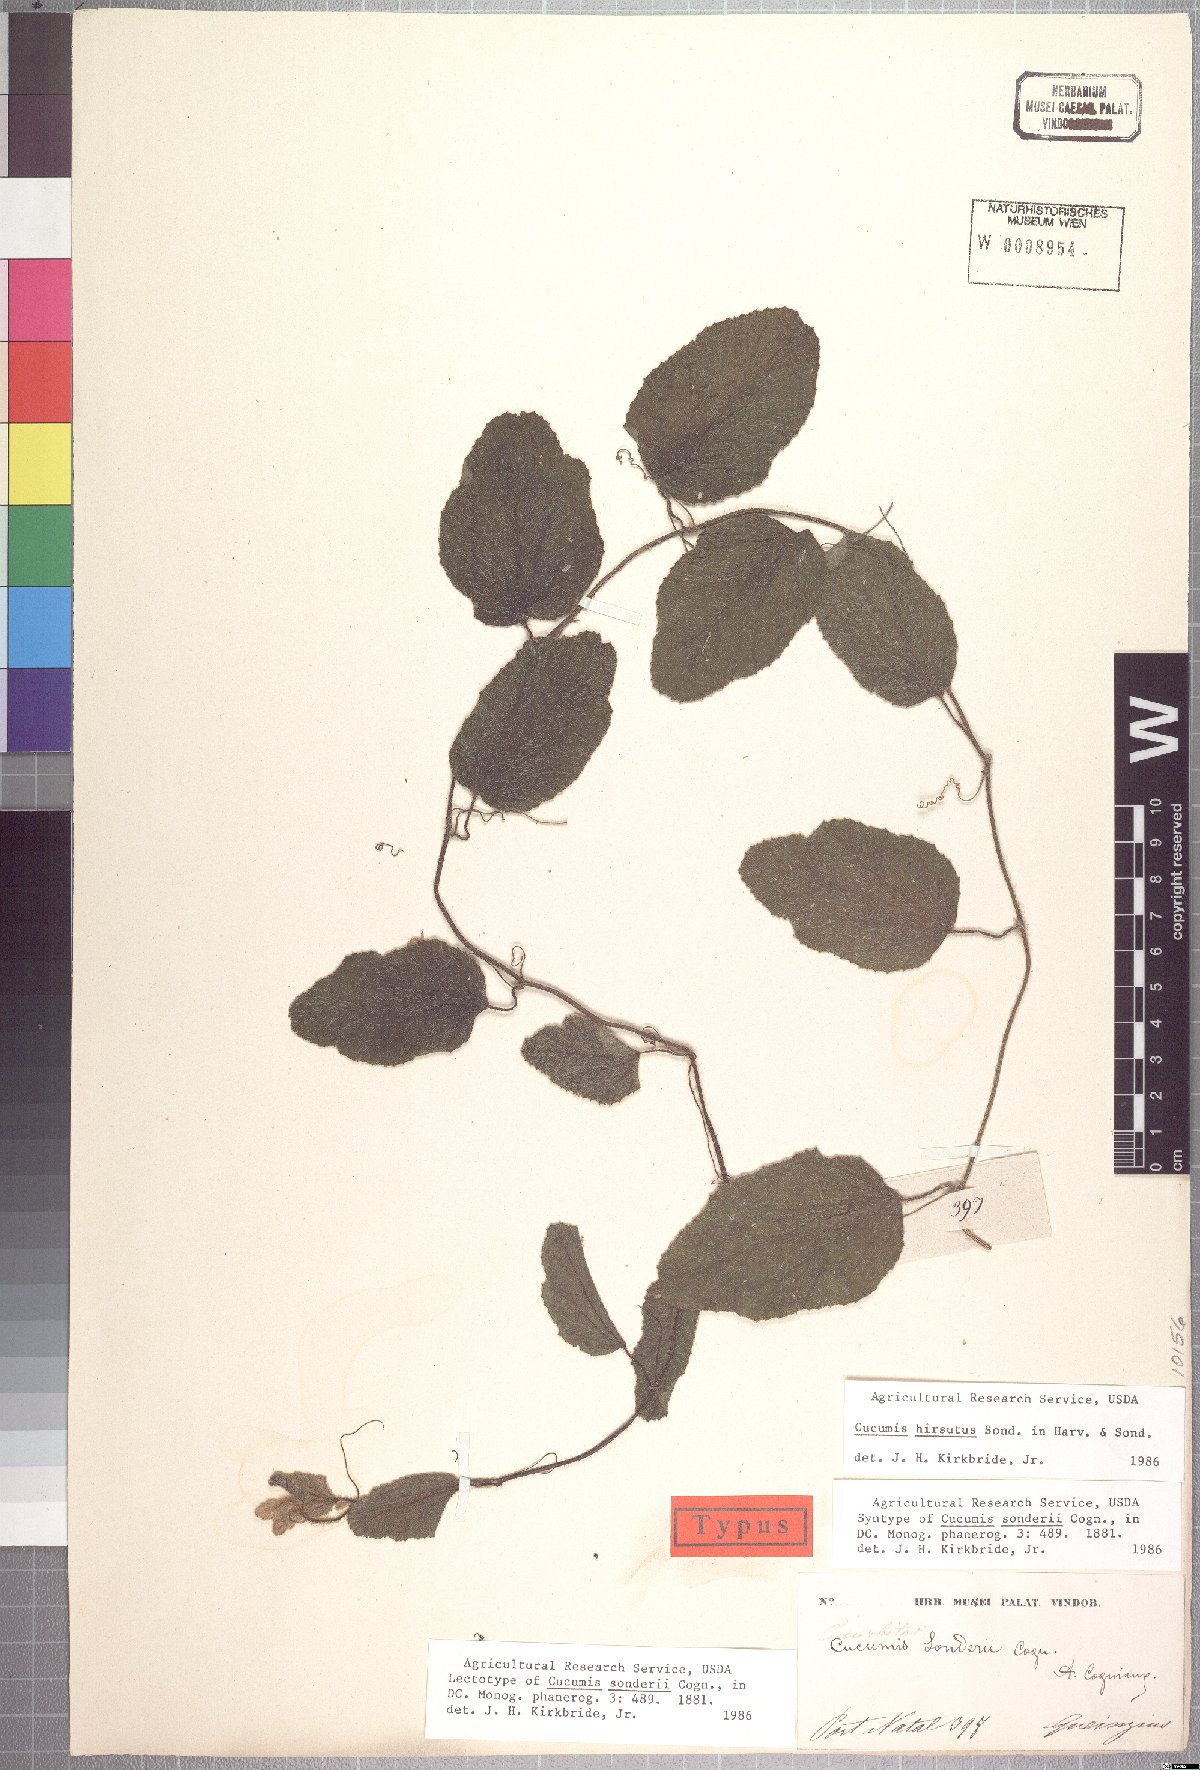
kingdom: Plantae
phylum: Tracheophyta
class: Magnoliopsida
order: Cucurbitales
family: Cucurbitaceae
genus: Cucumis
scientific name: Cucumis hirsutus
